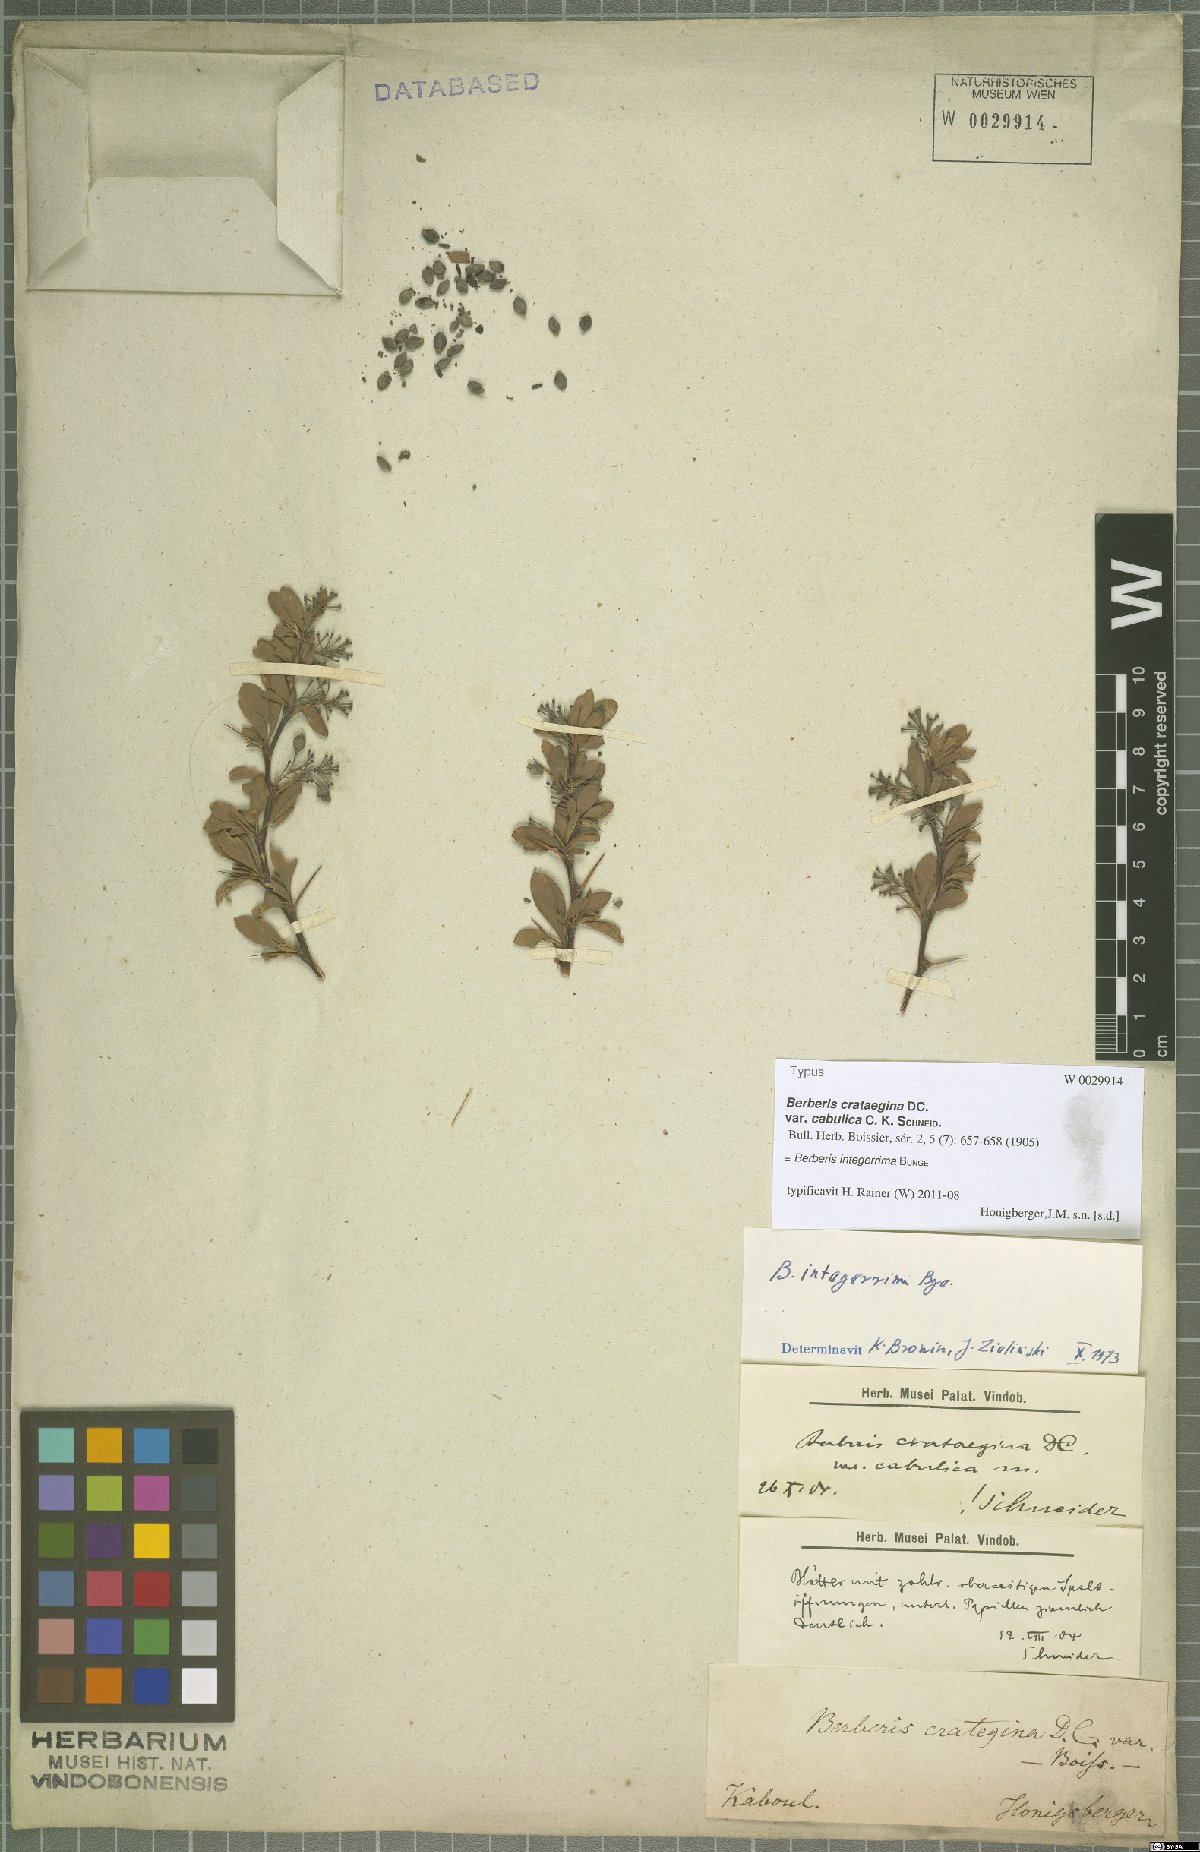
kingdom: Plantae
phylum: Tracheophyta
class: Magnoliopsida
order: Ranunculales
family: Berberidaceae
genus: Berberis
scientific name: Berberis integerrima
